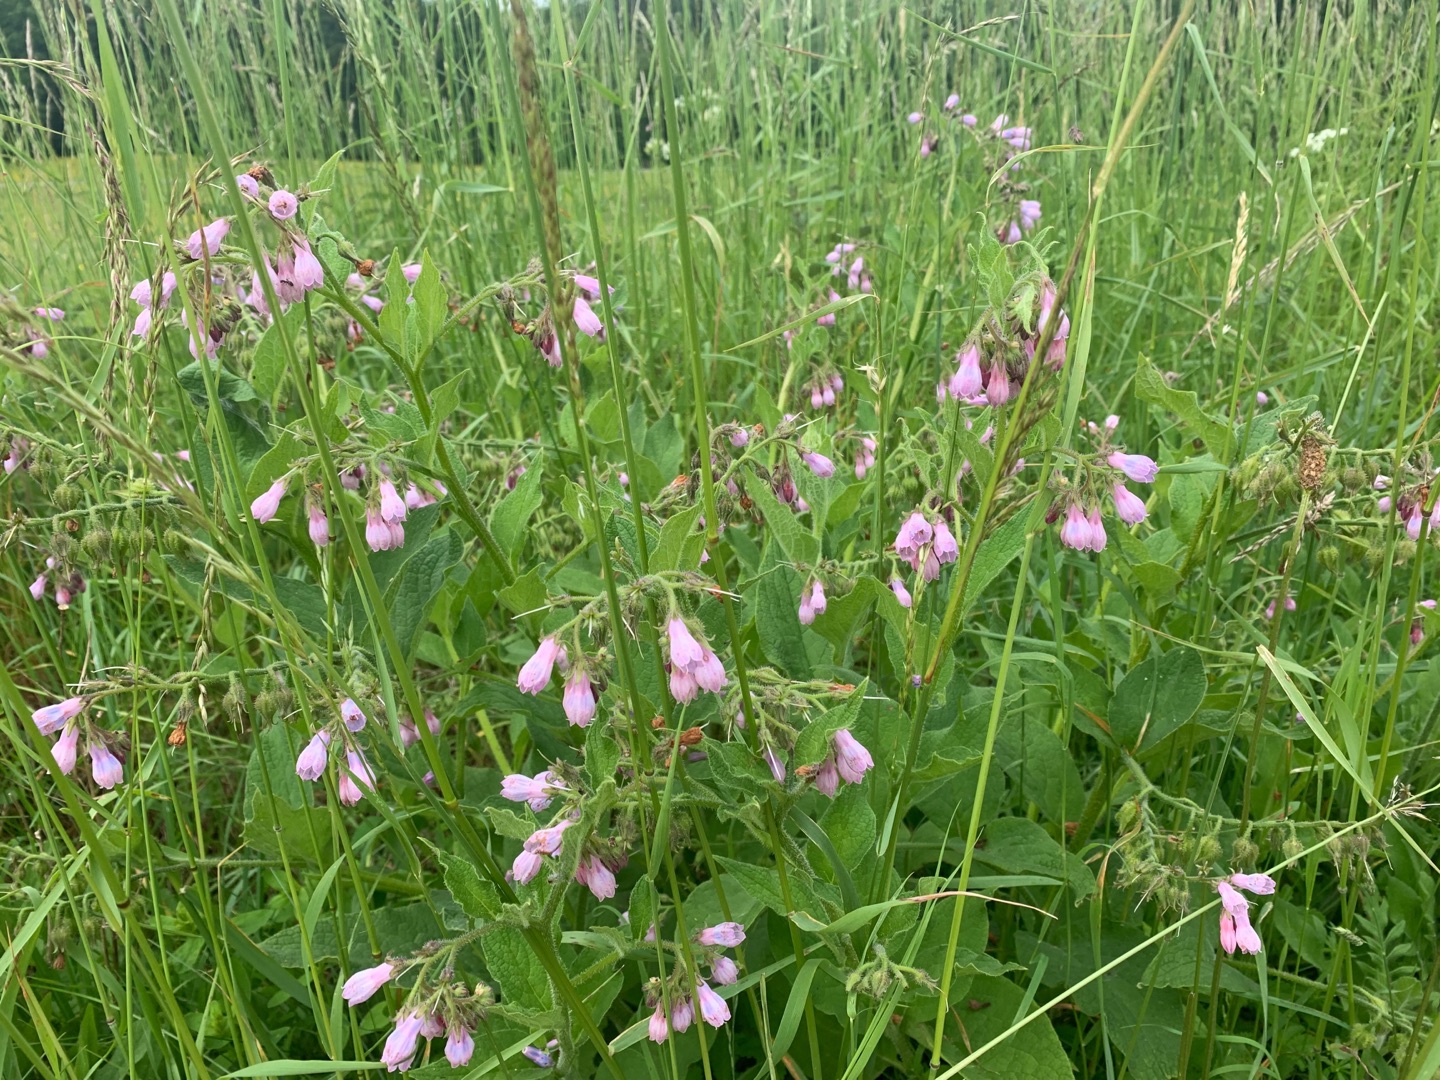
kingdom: Plantae
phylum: Tracheophyta
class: Magnoliopsida
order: Boraginales
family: Boraginaceae
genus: Symphytum
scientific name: Symphytum uplandicum
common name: Foder-kulsukker
